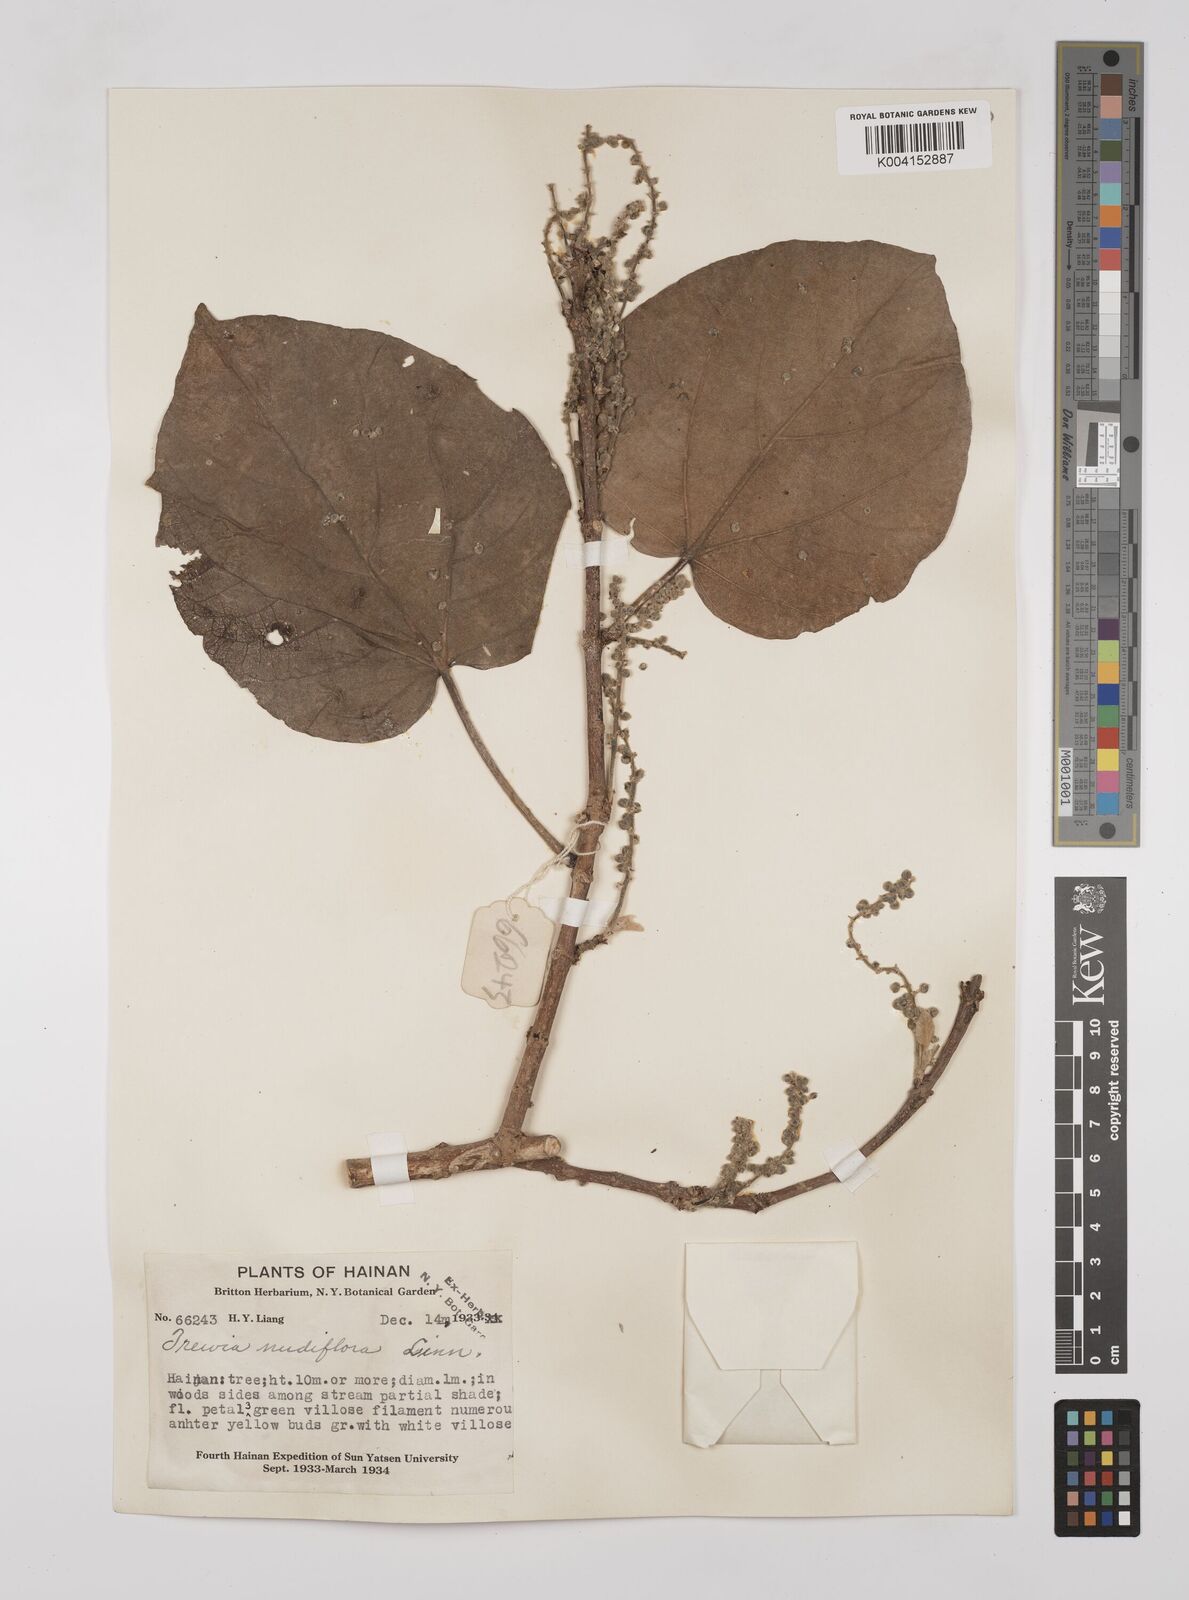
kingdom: Plantae
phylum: Tracheophyta
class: Magnoliopsida
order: Malpighiales
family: Euphorbiaceae
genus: Mallotus
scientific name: Mallotus nudiflorus
